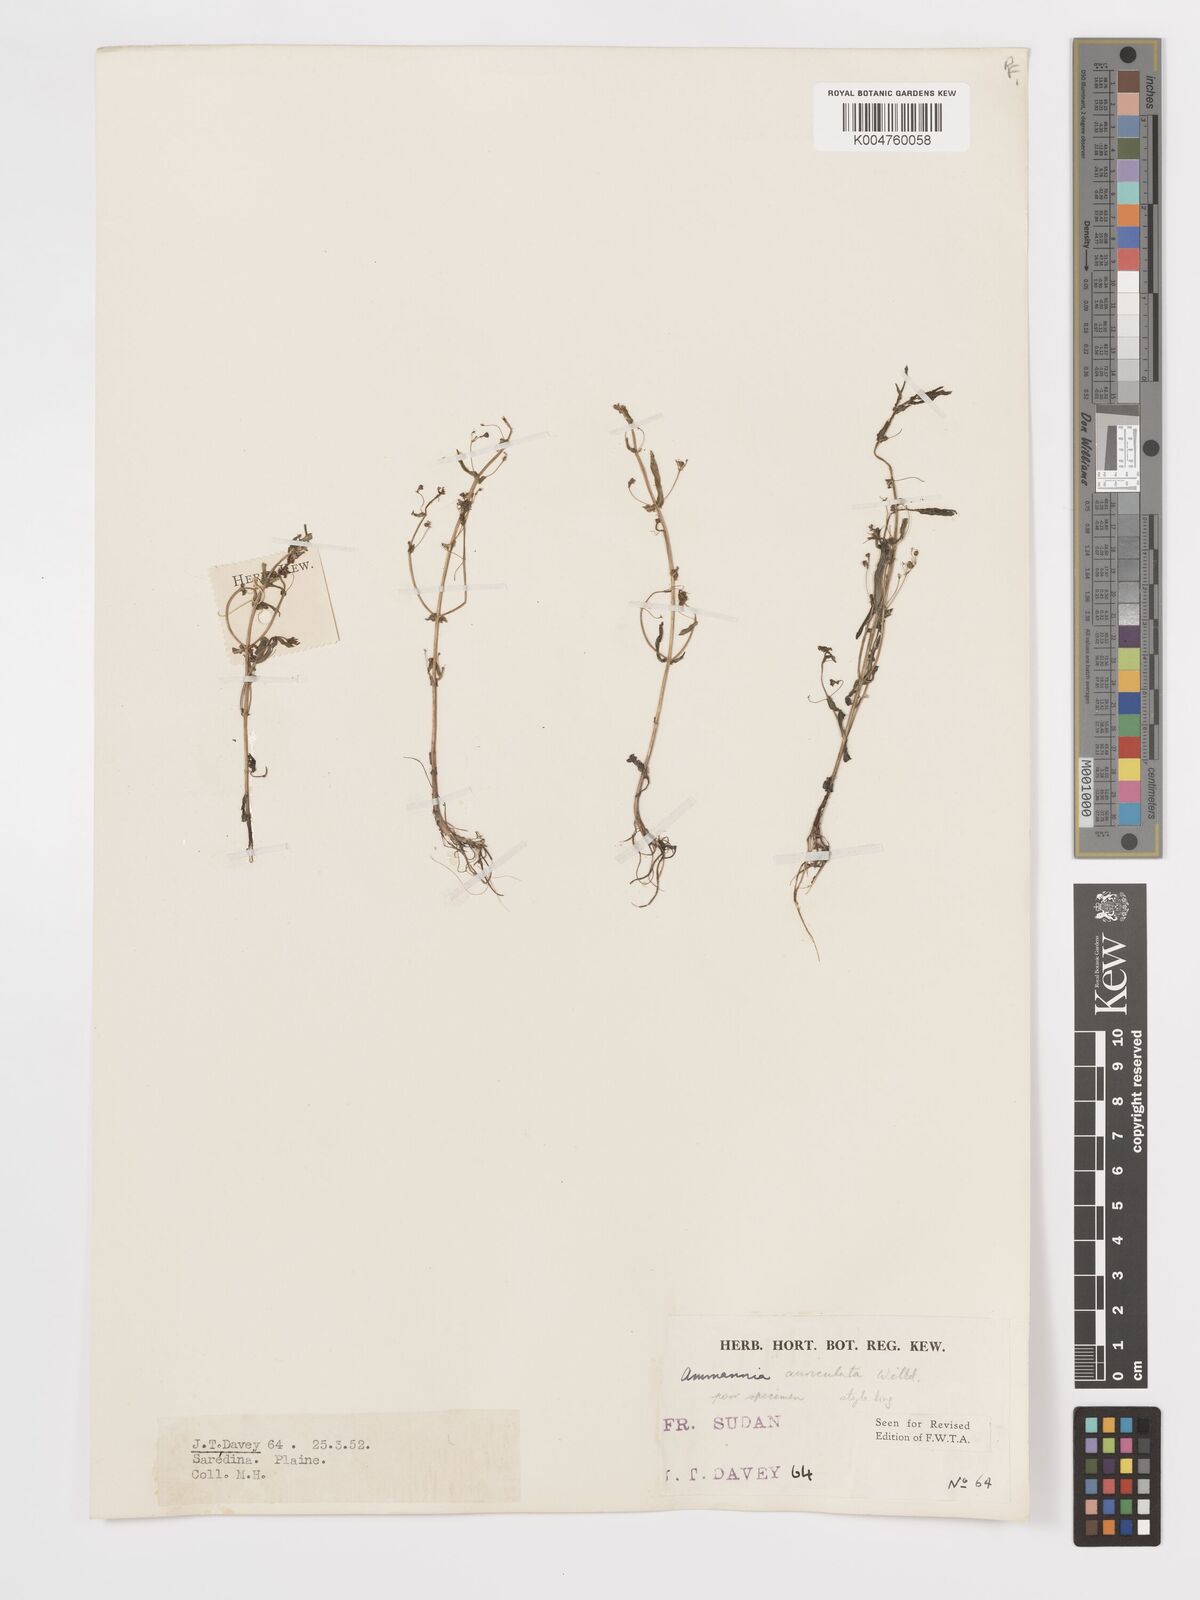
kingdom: Plantae
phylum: Tracheophyta
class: Magnoliopsida
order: Myrtales
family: Lythraceae
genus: Ammannia
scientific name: Ammannia auriculata
